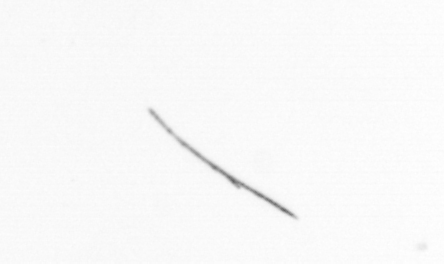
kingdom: Chromista
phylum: Ochrophyta
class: Bacillariophyceae
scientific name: Bacillariophyceae
